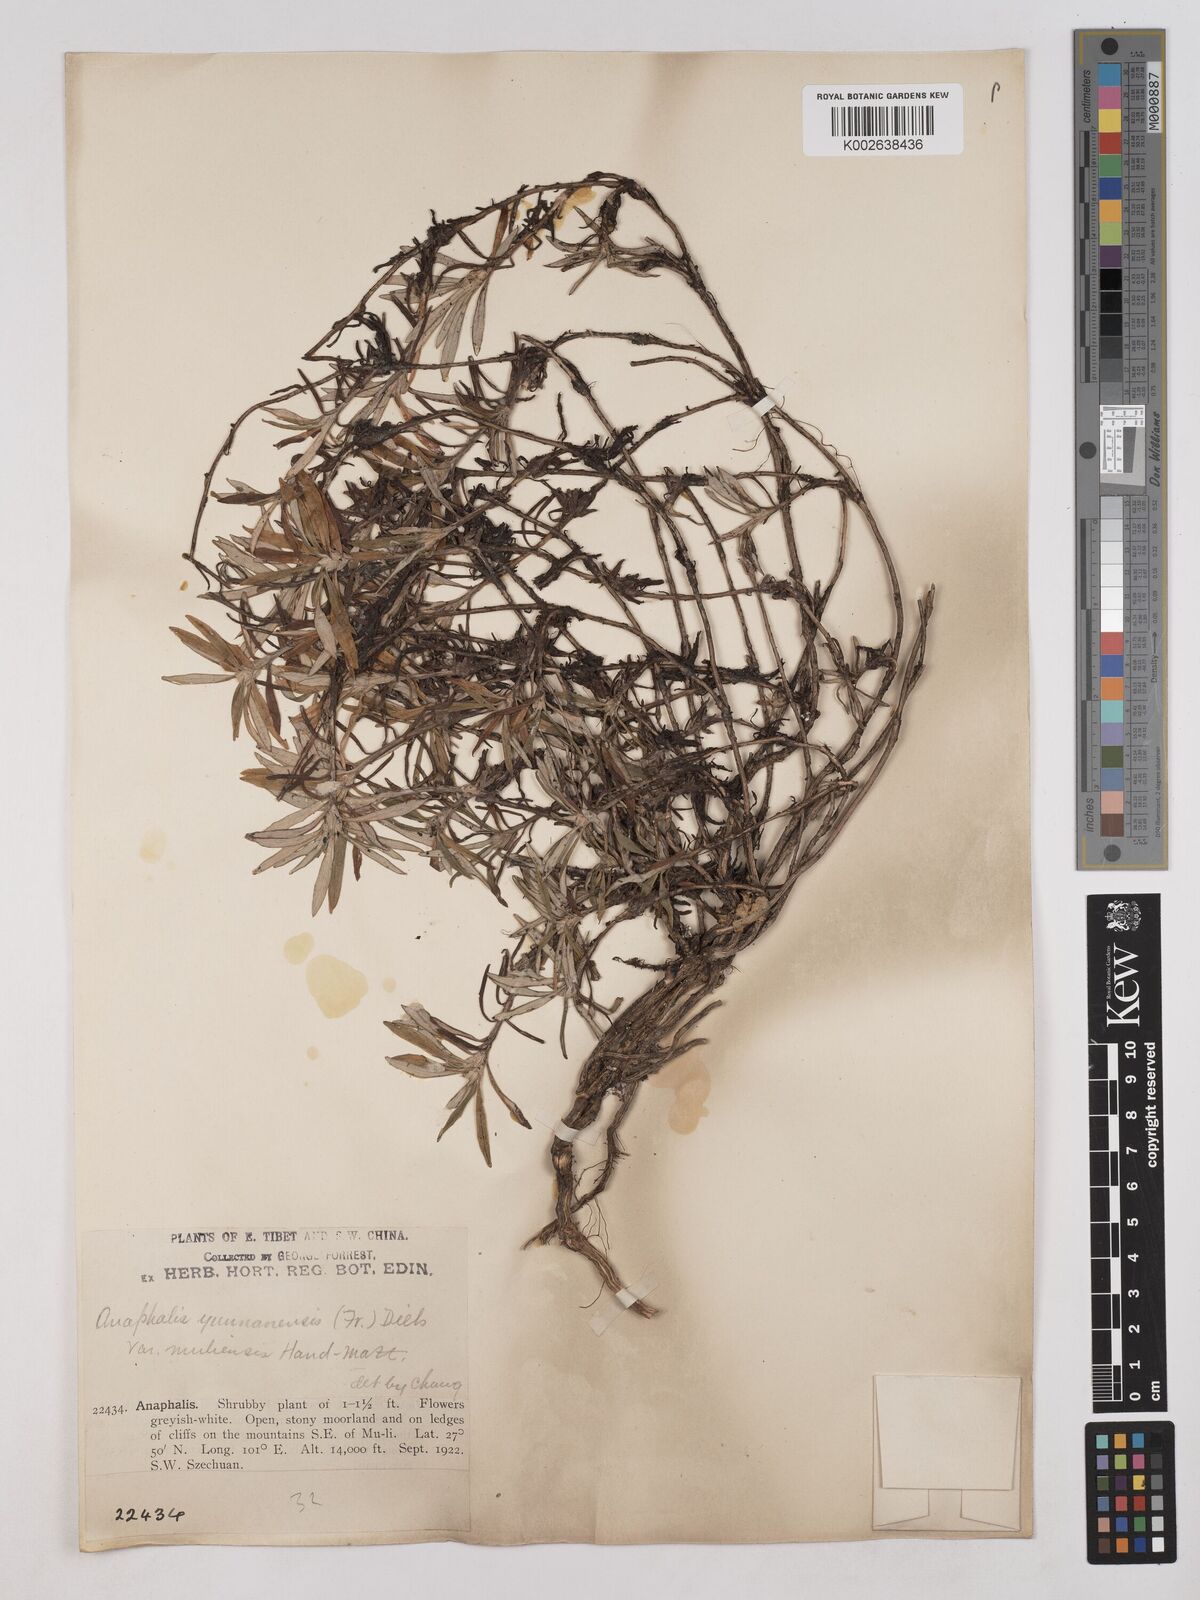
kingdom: Plantae
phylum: Tracheophyta
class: Magnoliopsida
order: Asterales
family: Asteraceae
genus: Anaphalis
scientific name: Anaphalis yunnanensis
